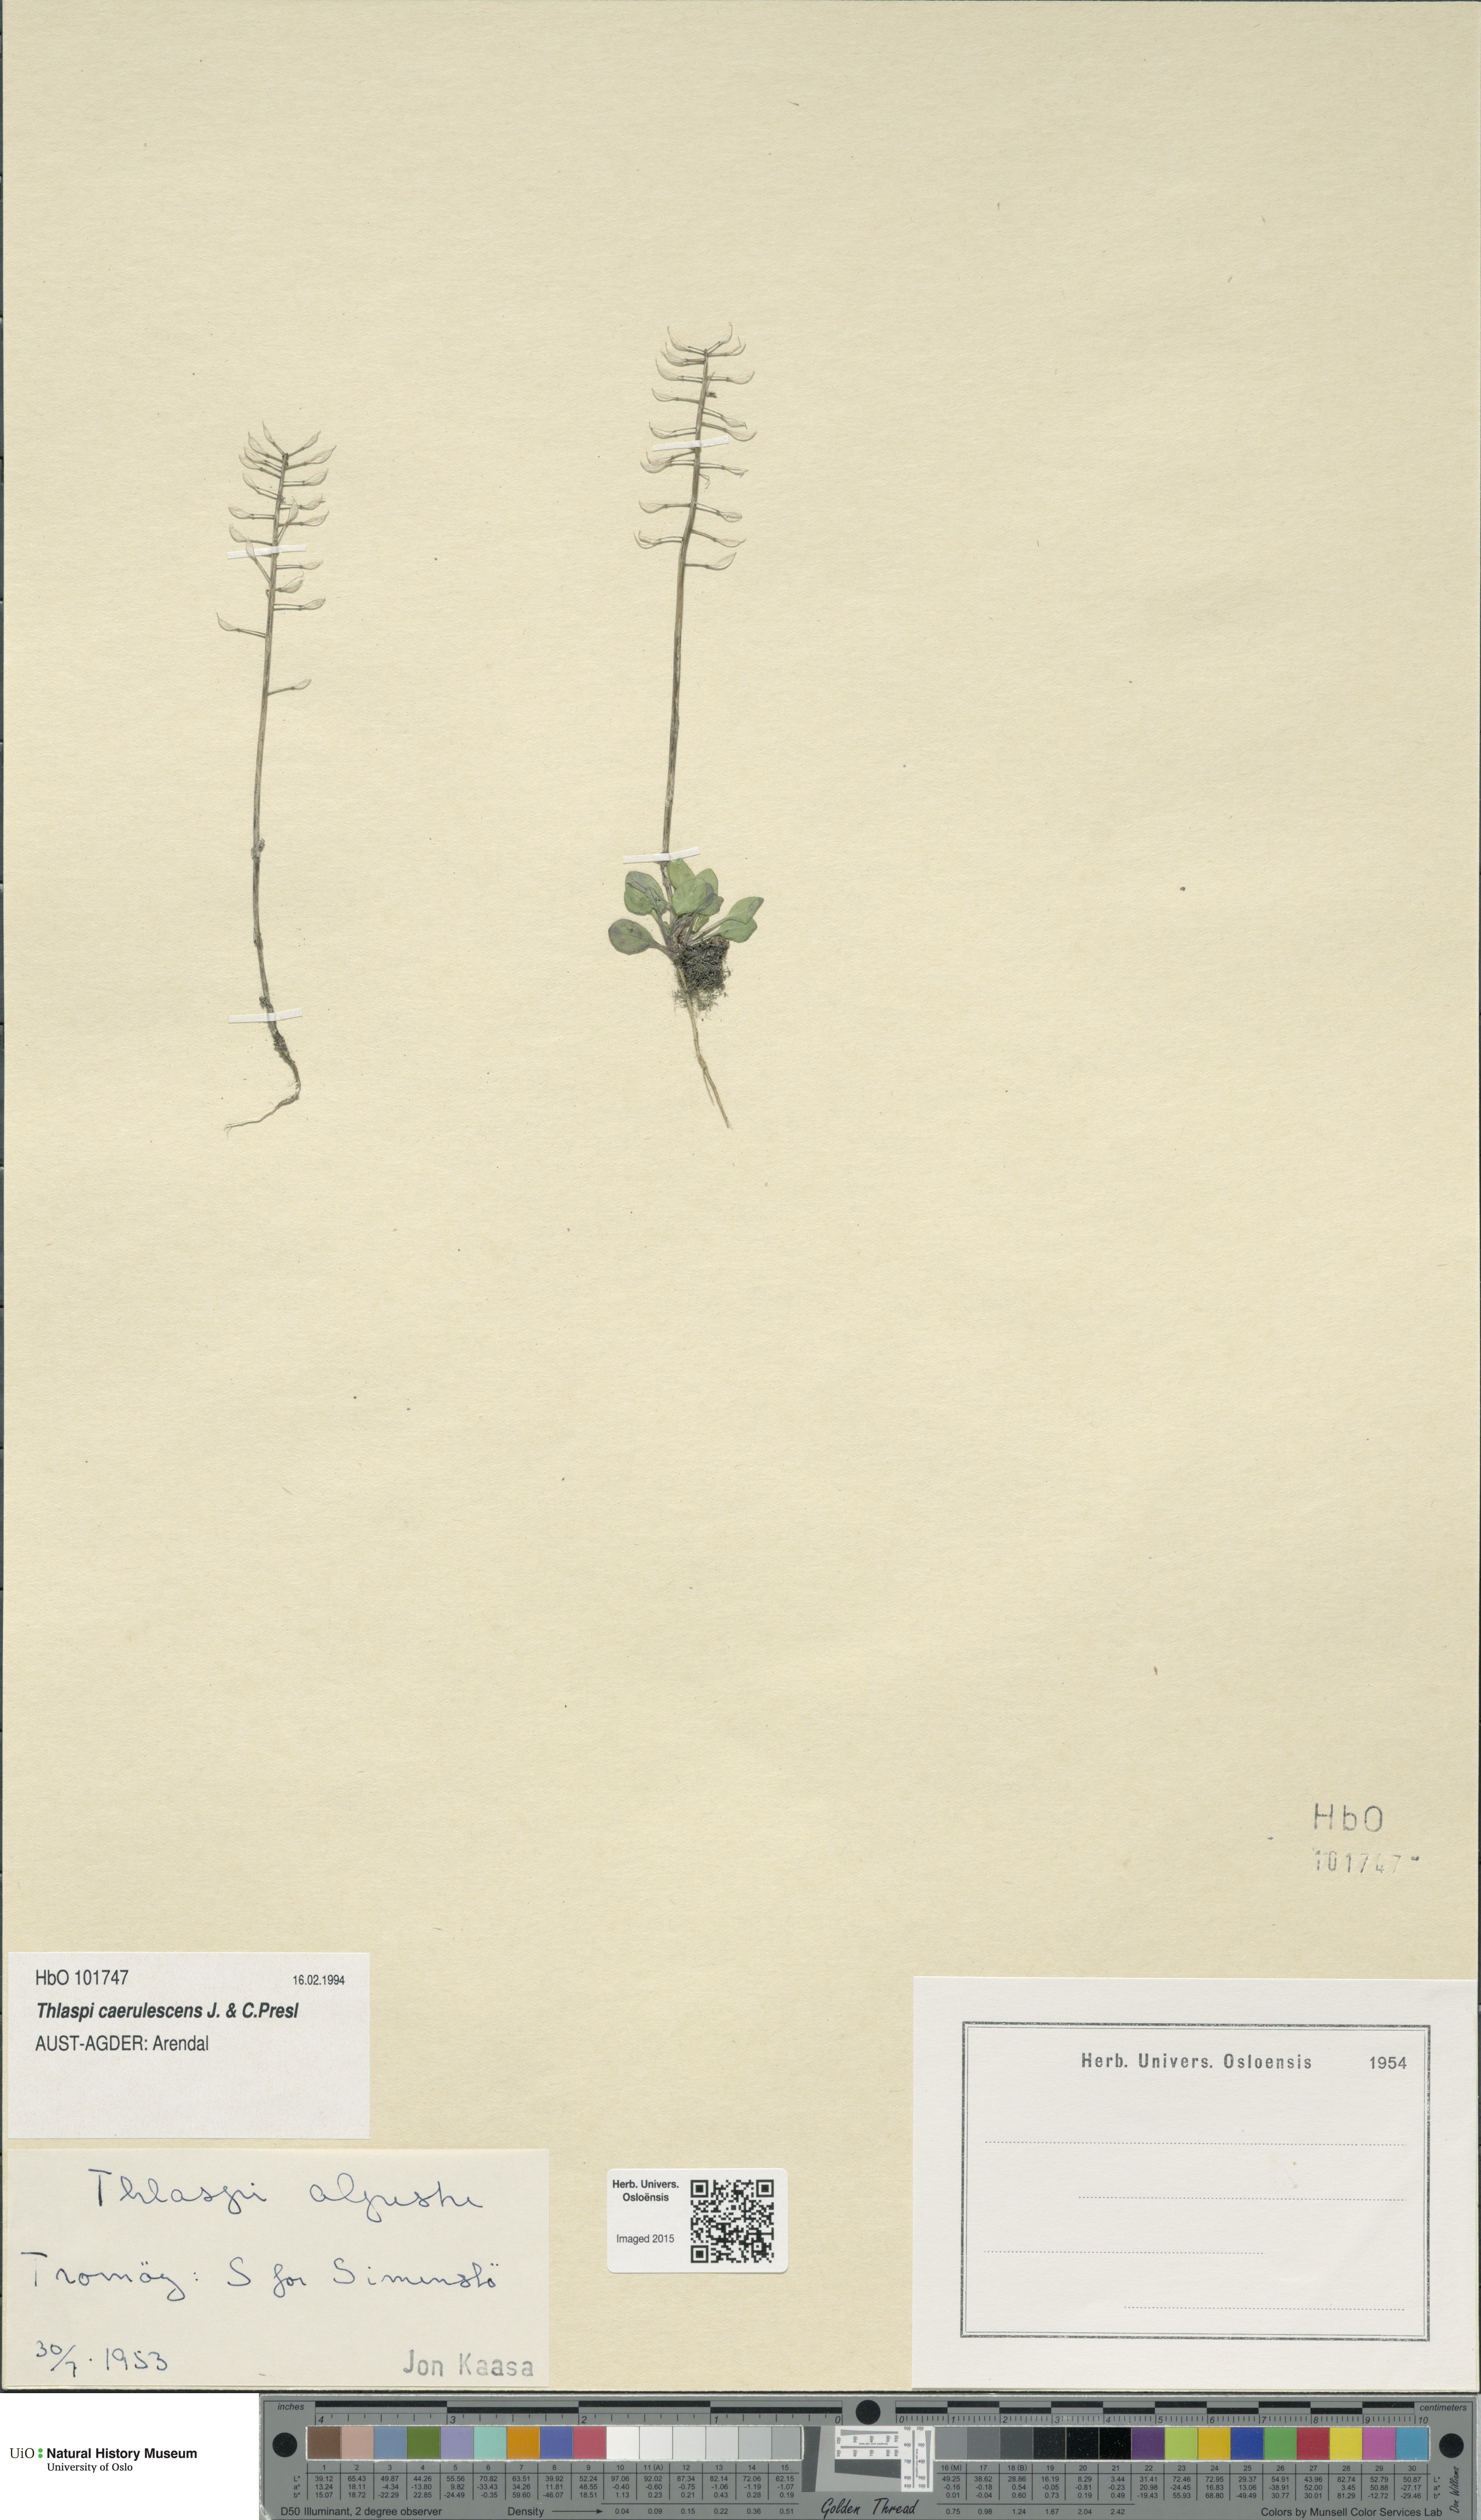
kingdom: Plantae
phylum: Tracheophyta
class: Magnoliopsida
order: Brassicales
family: Brassicaceae
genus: Noccaea
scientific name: Noccaea caerulescens
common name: Alpine pennycress
